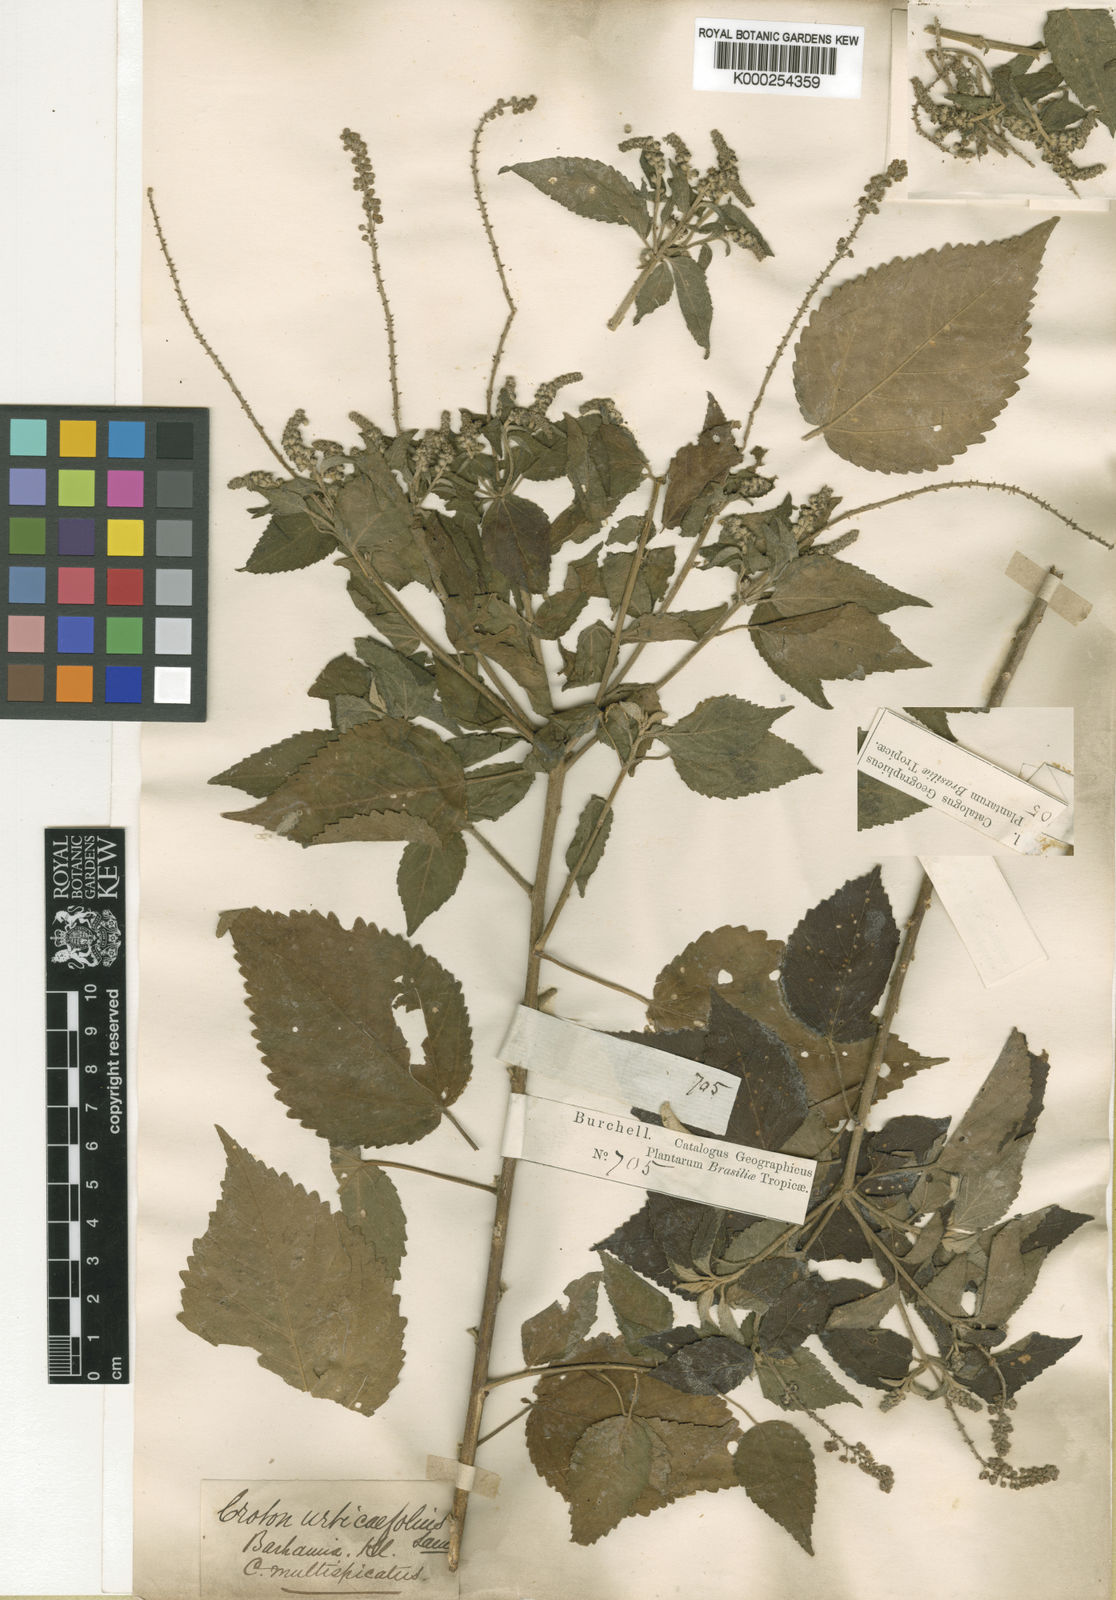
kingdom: Plantae
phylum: Tracheophyta
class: Magnoliopsida
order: Malpighiales
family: Euphorbiaceae
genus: Croton
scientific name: Croton urticifolius
